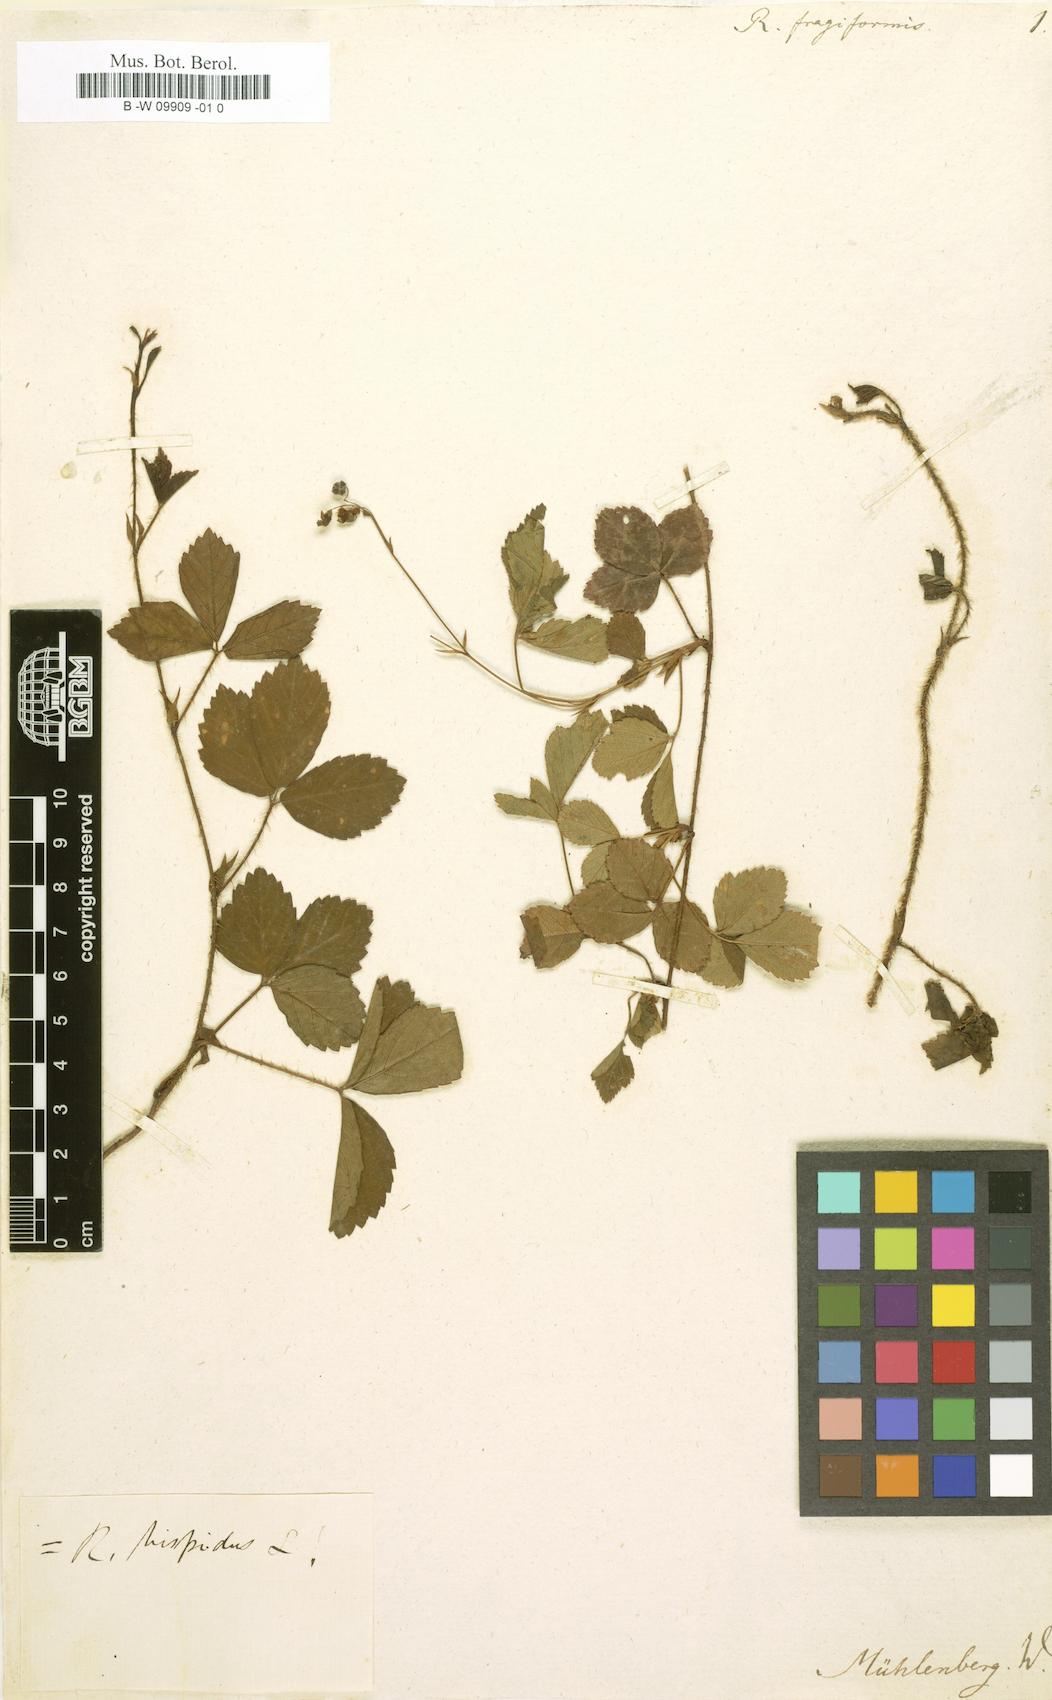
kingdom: Plantae
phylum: Tracheophyta
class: Magnoliopsida
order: Rosales
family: Rosaceae
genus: Rubus
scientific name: Rubus fragariiformis
